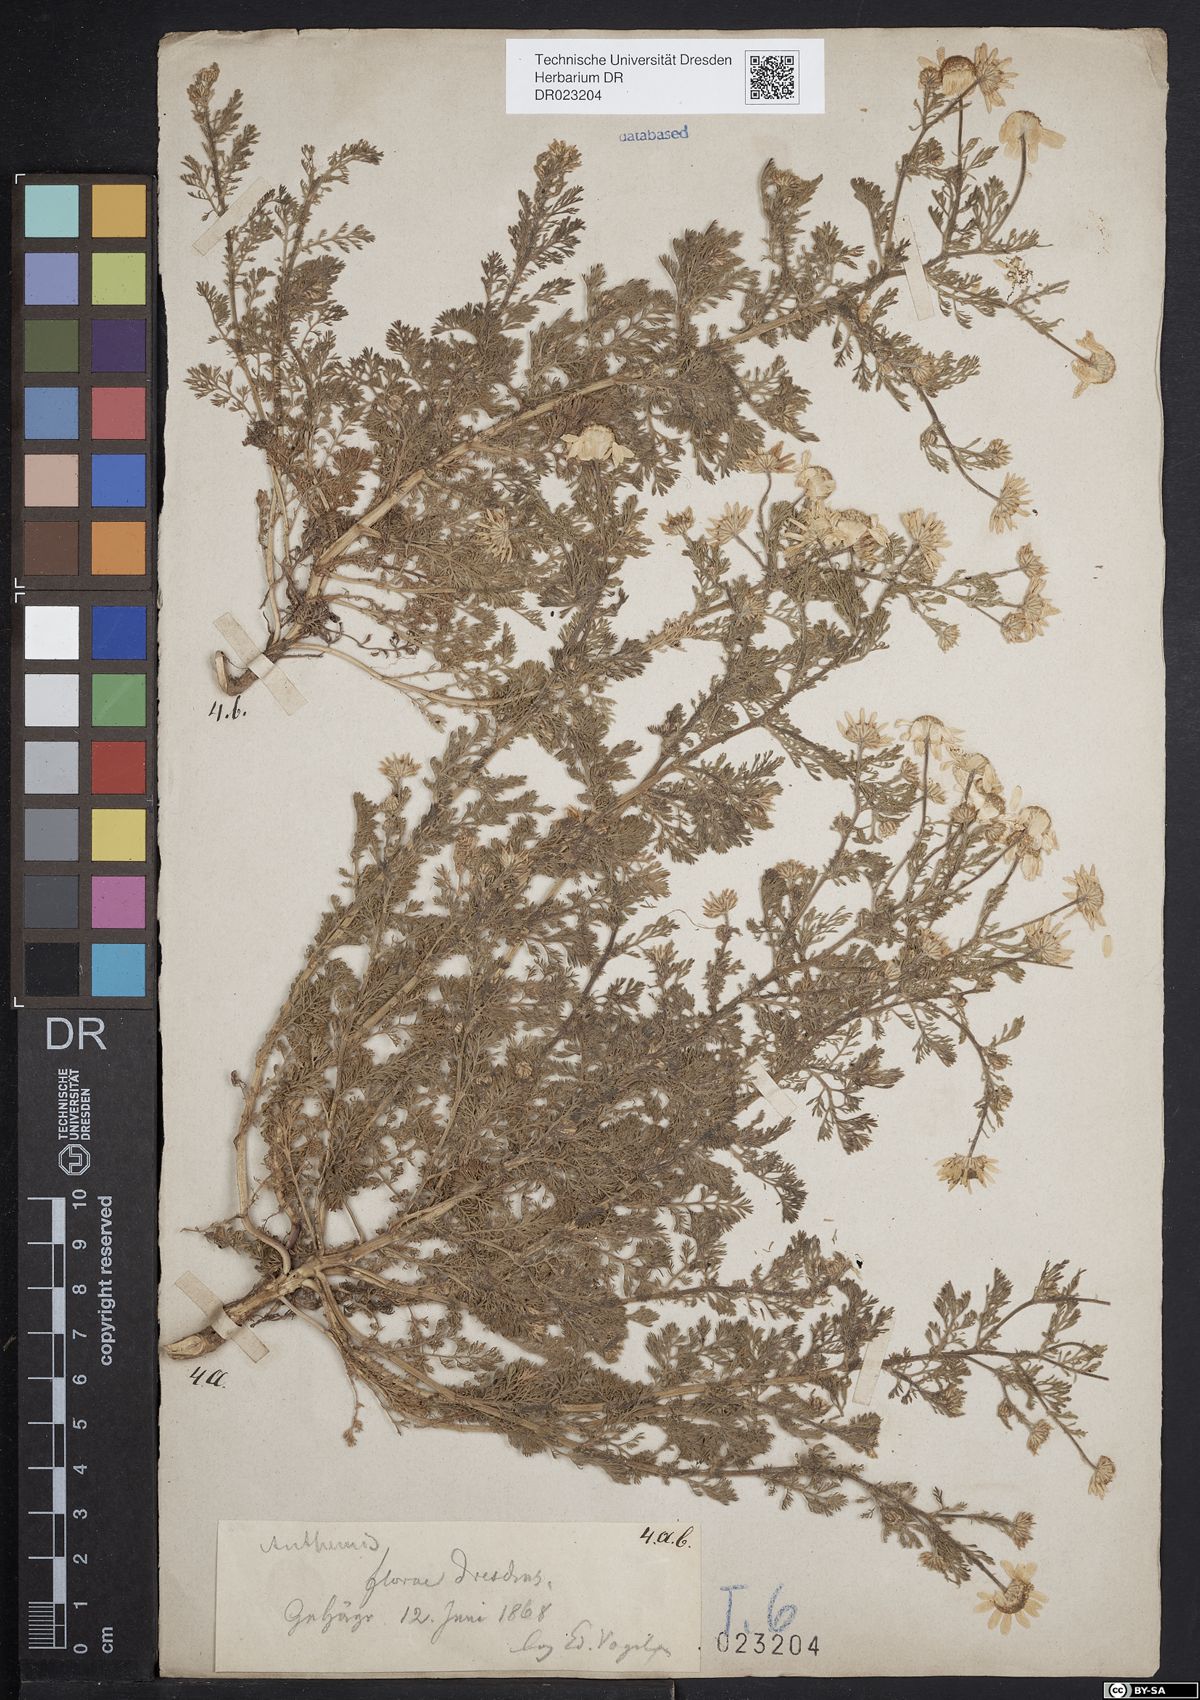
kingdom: Plantae
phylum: Tracheophyta
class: Magnoliopsida
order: Asterales
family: Asteraceae
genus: Anthemis
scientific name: Anthemis cotula
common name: Stinking chamomile
